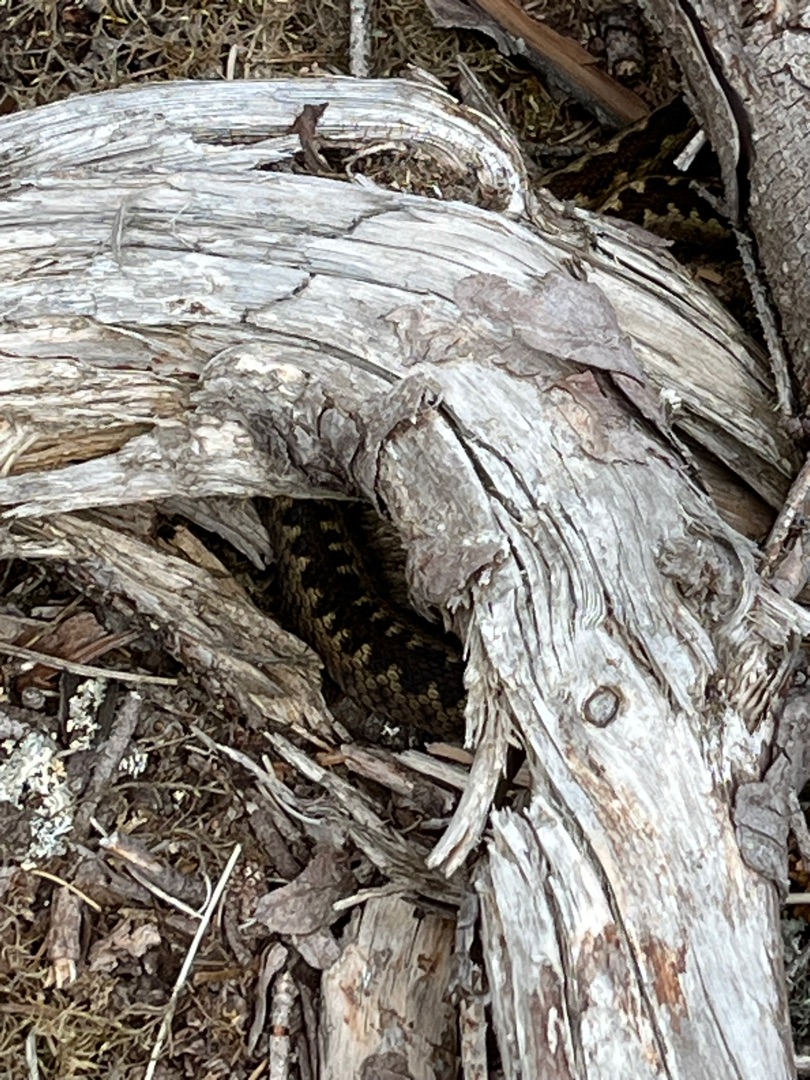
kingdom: Animalia
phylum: Chordata
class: Squamata
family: Viperidae
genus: Vipera
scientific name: Vipera berus
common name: Hugorm
